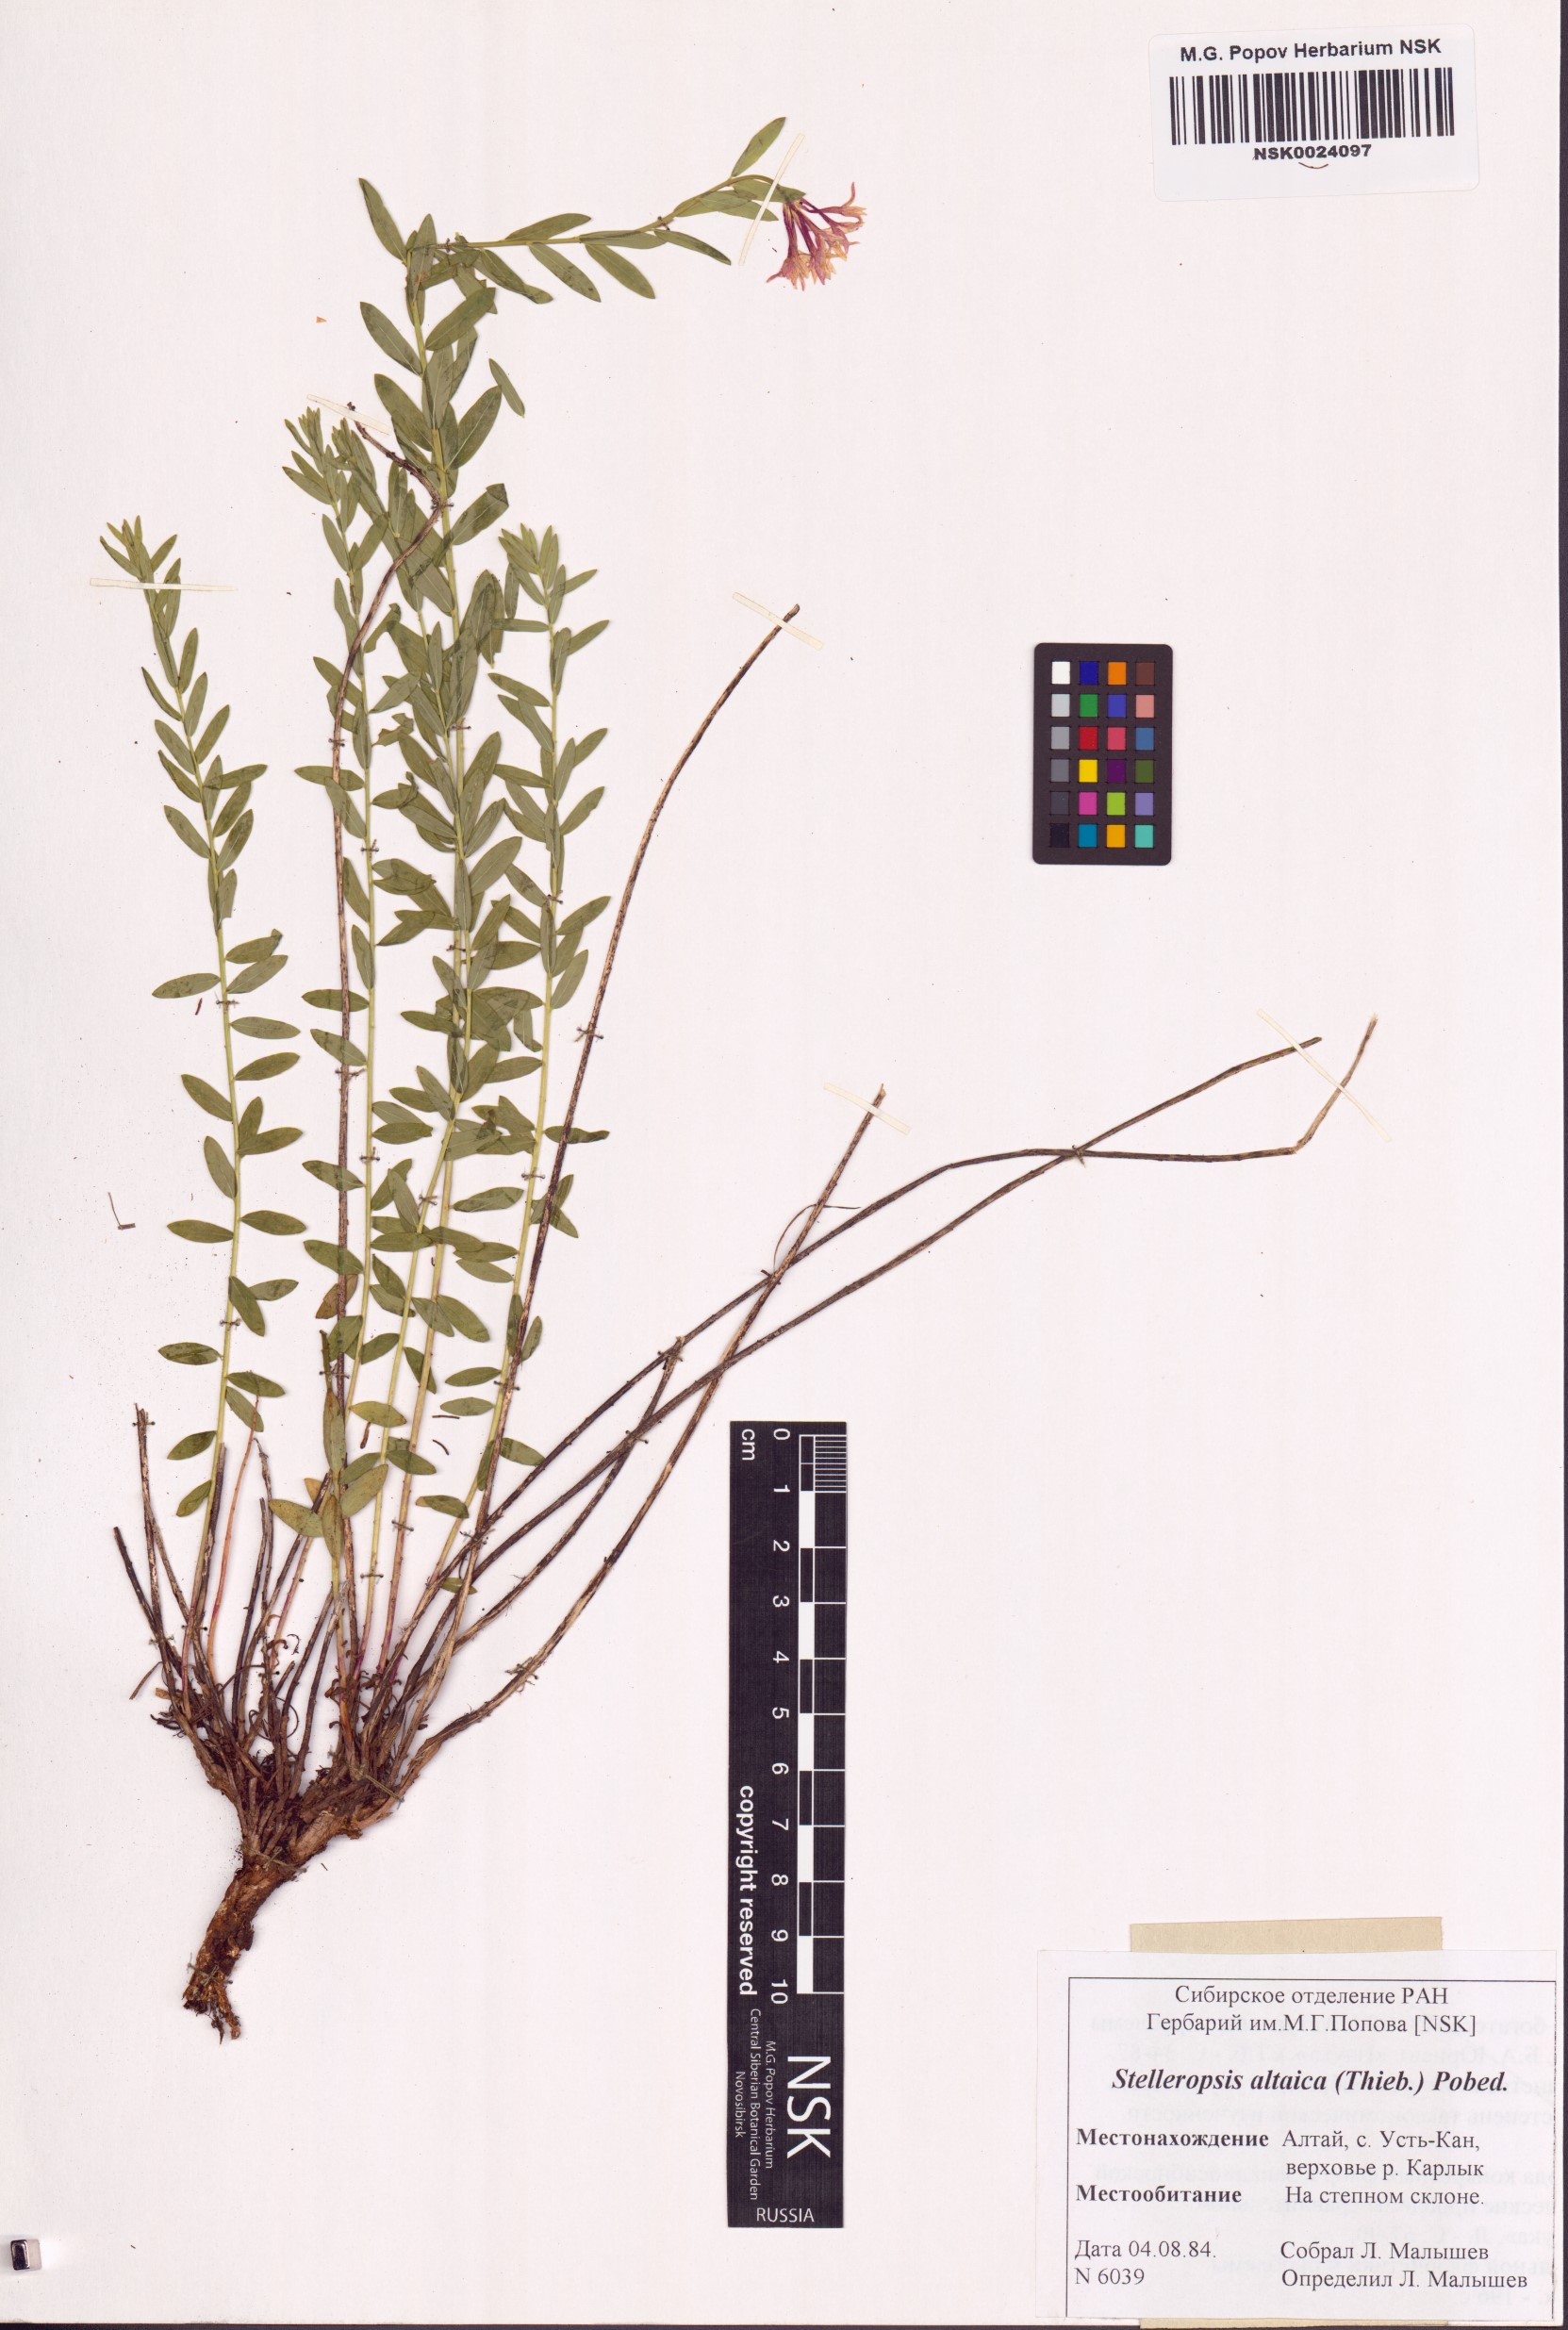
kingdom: Plantae
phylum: Tracheophyta
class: Magnoliopsida
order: Malvales
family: Thymelaeaceae
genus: Diarthron
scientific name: Diarthron altaicum
